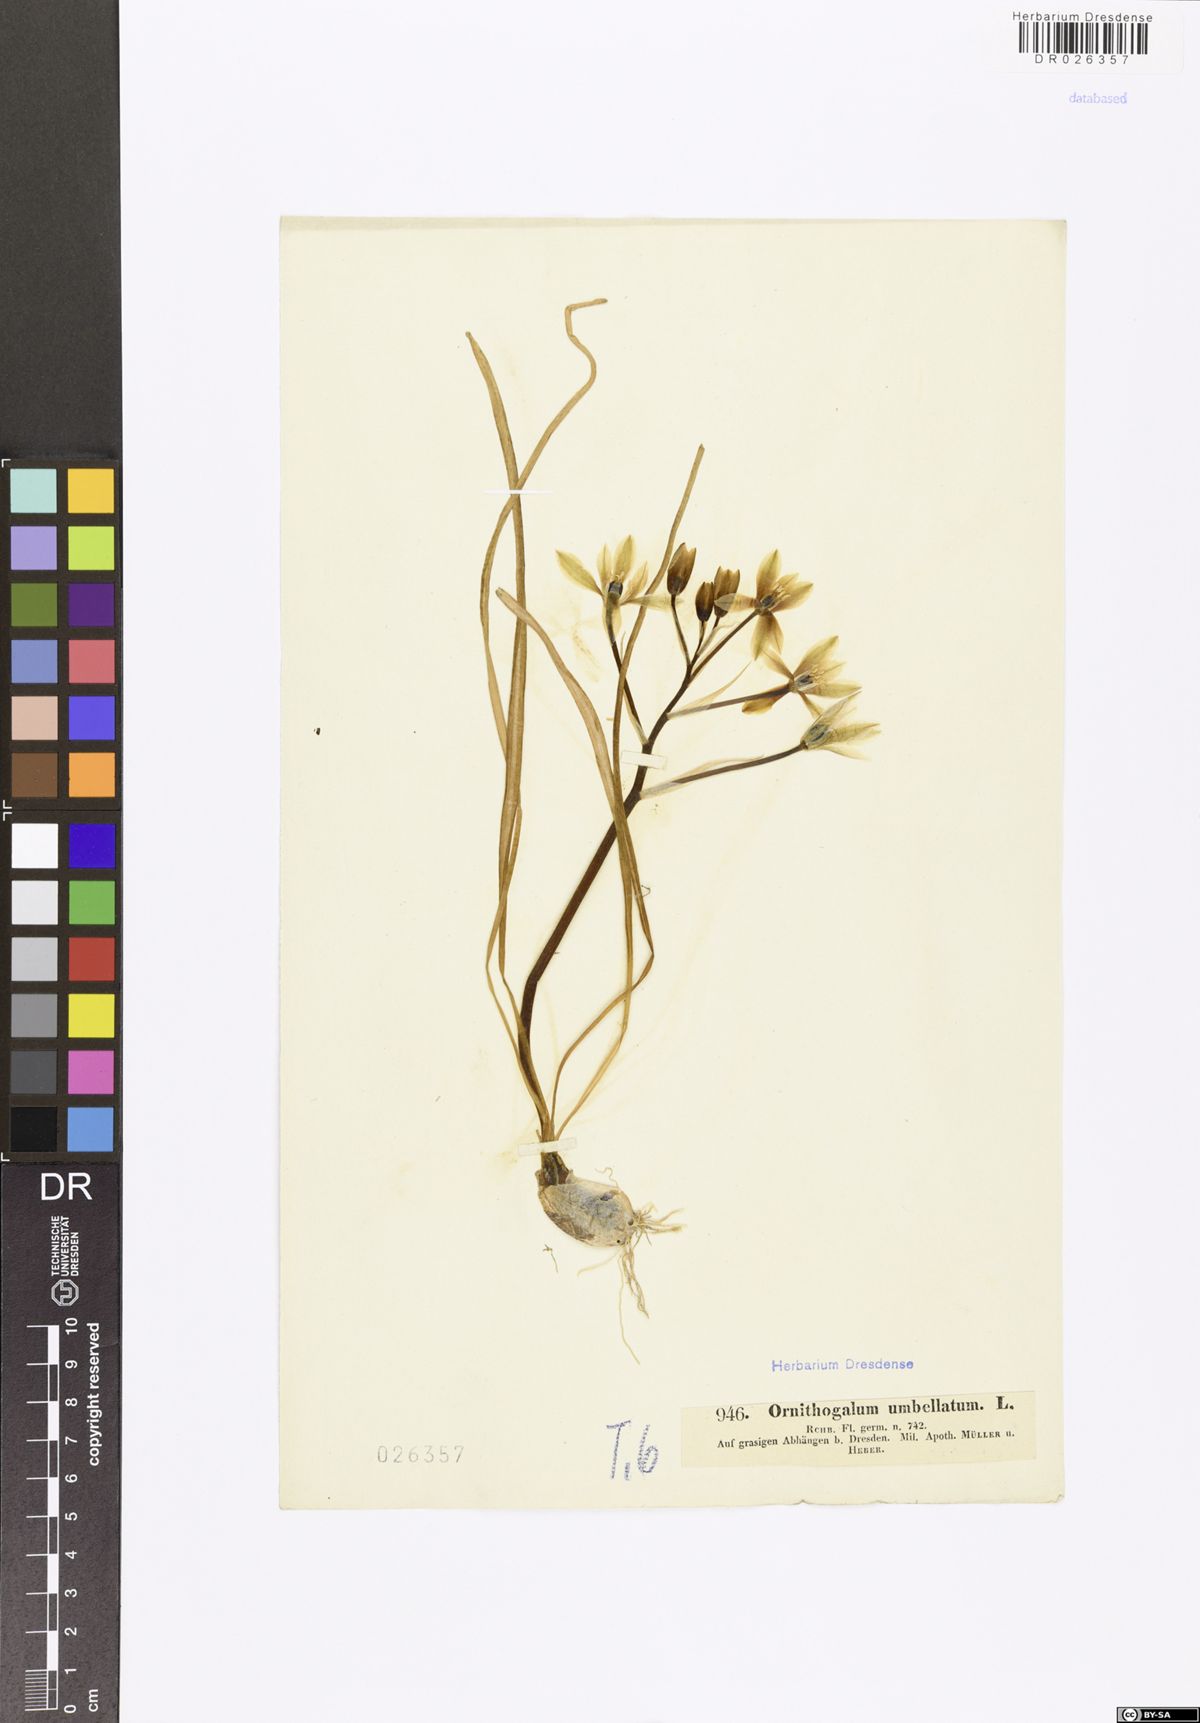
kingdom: Plantae
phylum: Tracheophyta
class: Liliopsida
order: Asparagales
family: Asparagaceae
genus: Ornithogalum
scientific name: Ornithogalum umbellatum
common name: Garden star-of-bethlehem
